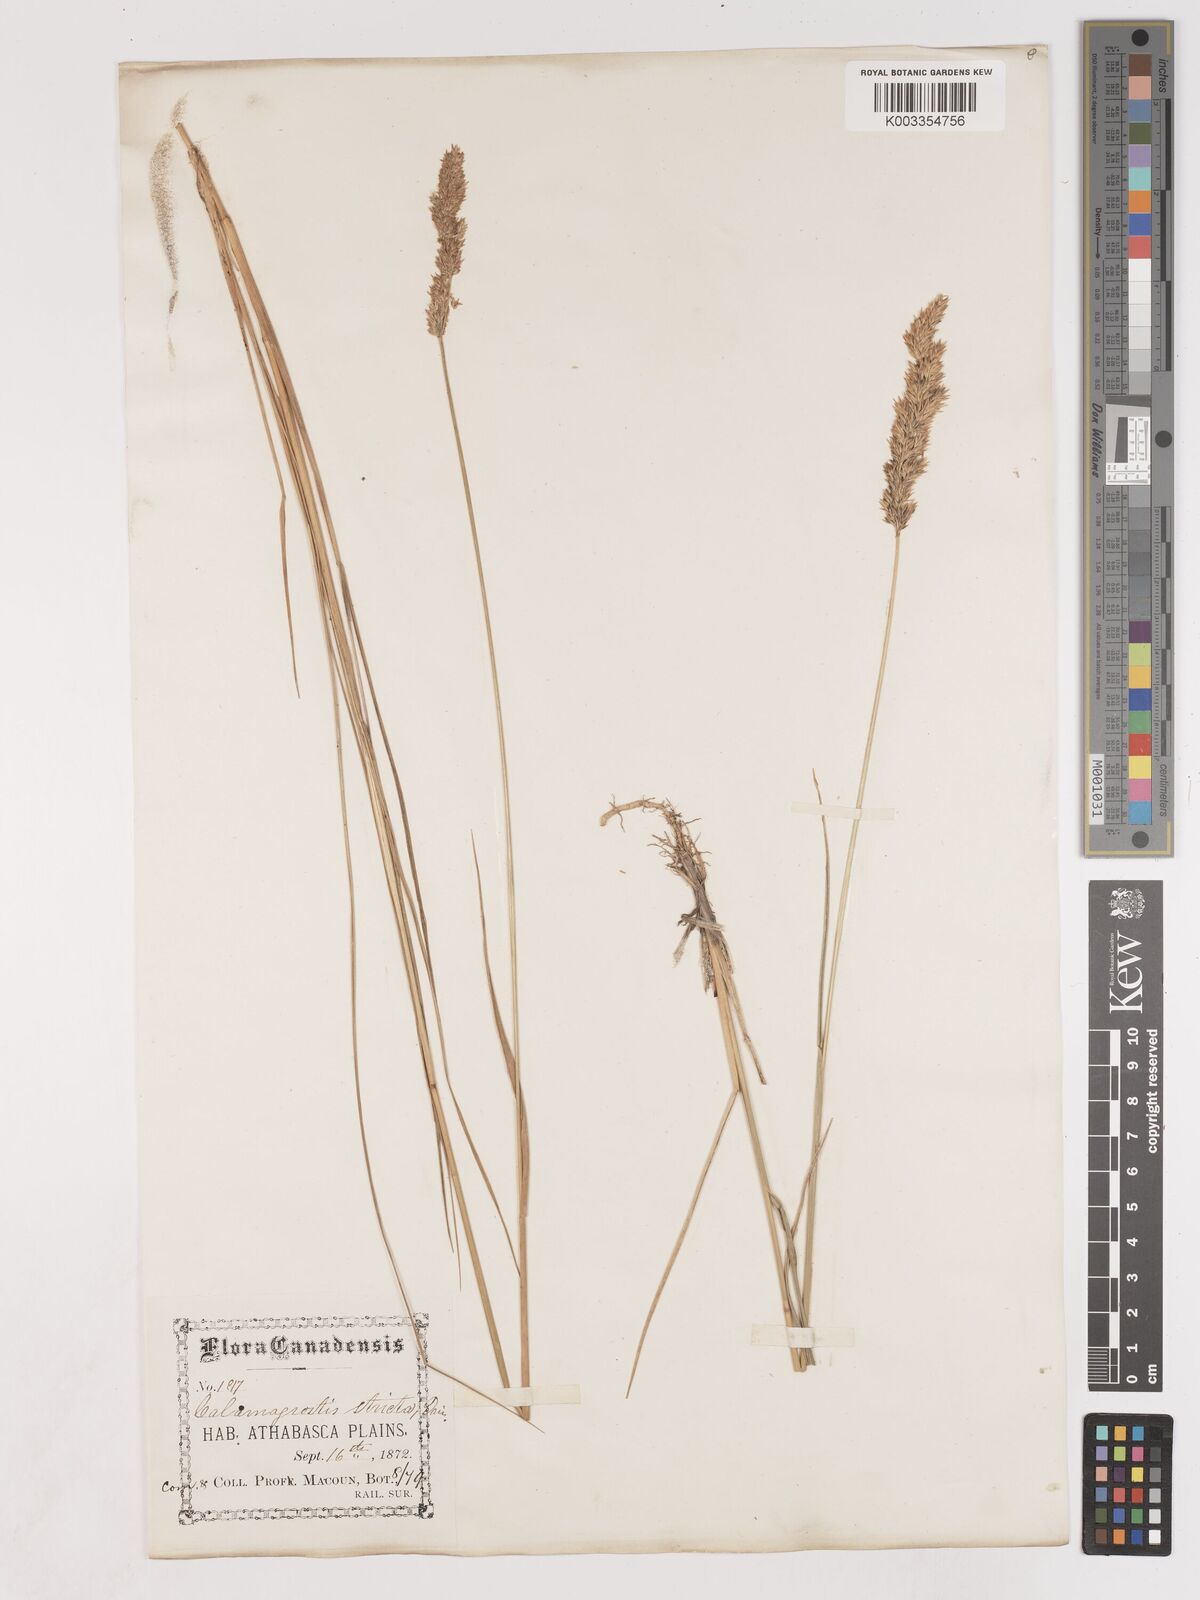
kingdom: Plantae
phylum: Tracheophyta
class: Liliopsida
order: Poales
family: Poaceae
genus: Cinnagrostis
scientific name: Cinnagrostis recta
